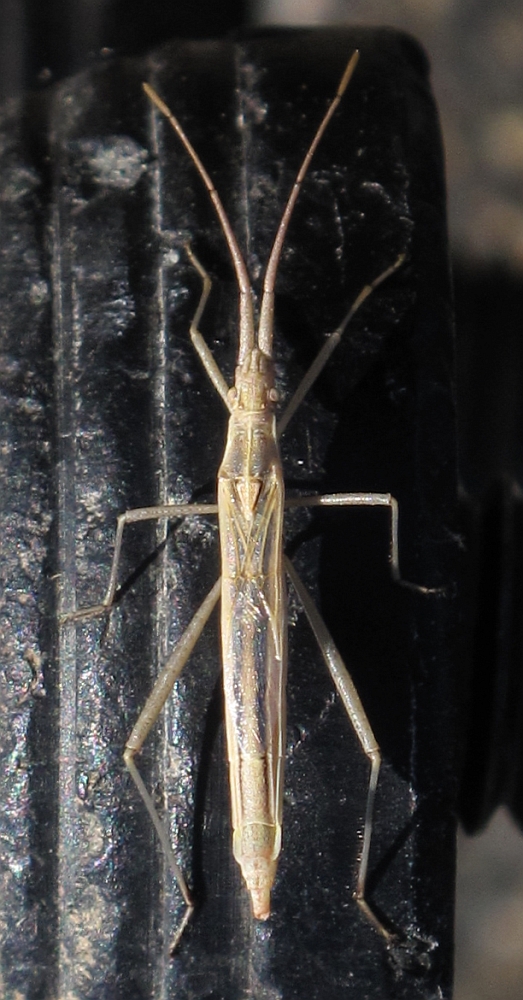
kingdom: Animalia
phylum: Arthropoda
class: Insecta
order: Hemiptera
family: Rhopalidae
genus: Chorosoma
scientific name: Chorosoma schillingii
